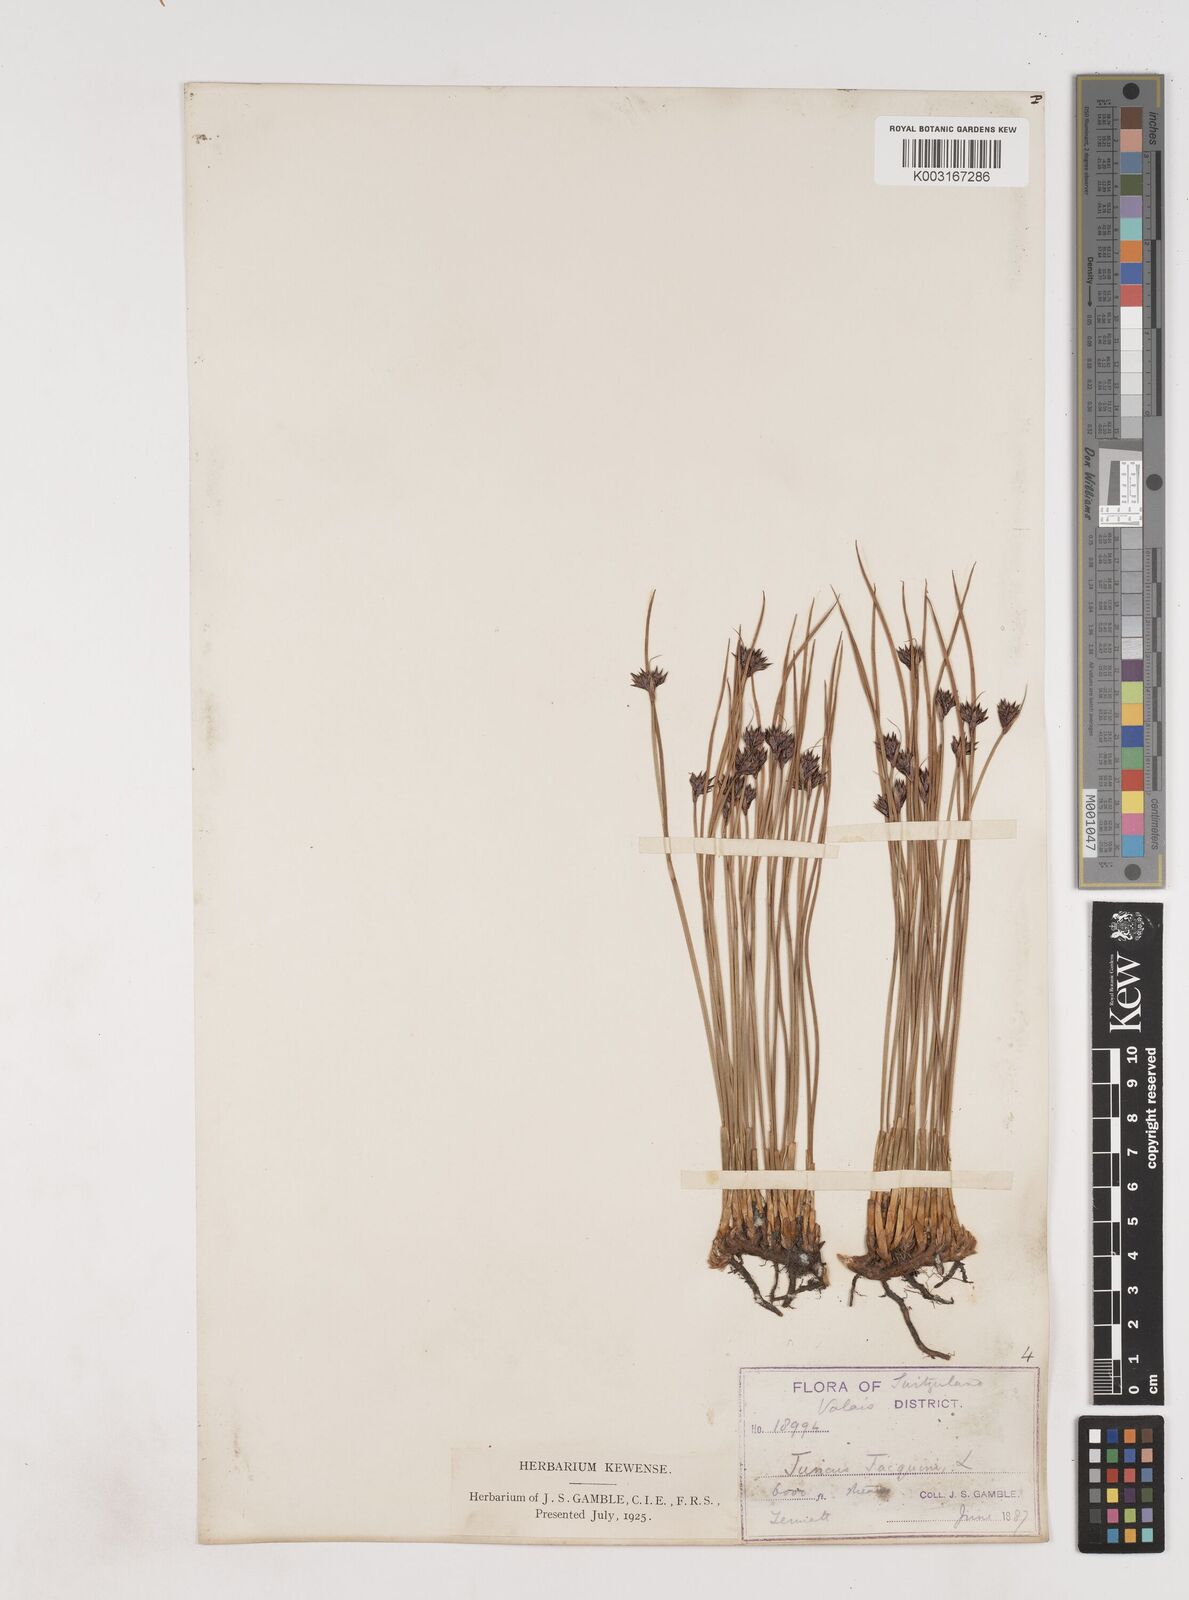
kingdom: Plantae
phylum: Tracheophyta
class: Liliopsida
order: Poales
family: Juncaceae
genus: Juncus
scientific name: Juncus jacquinii
